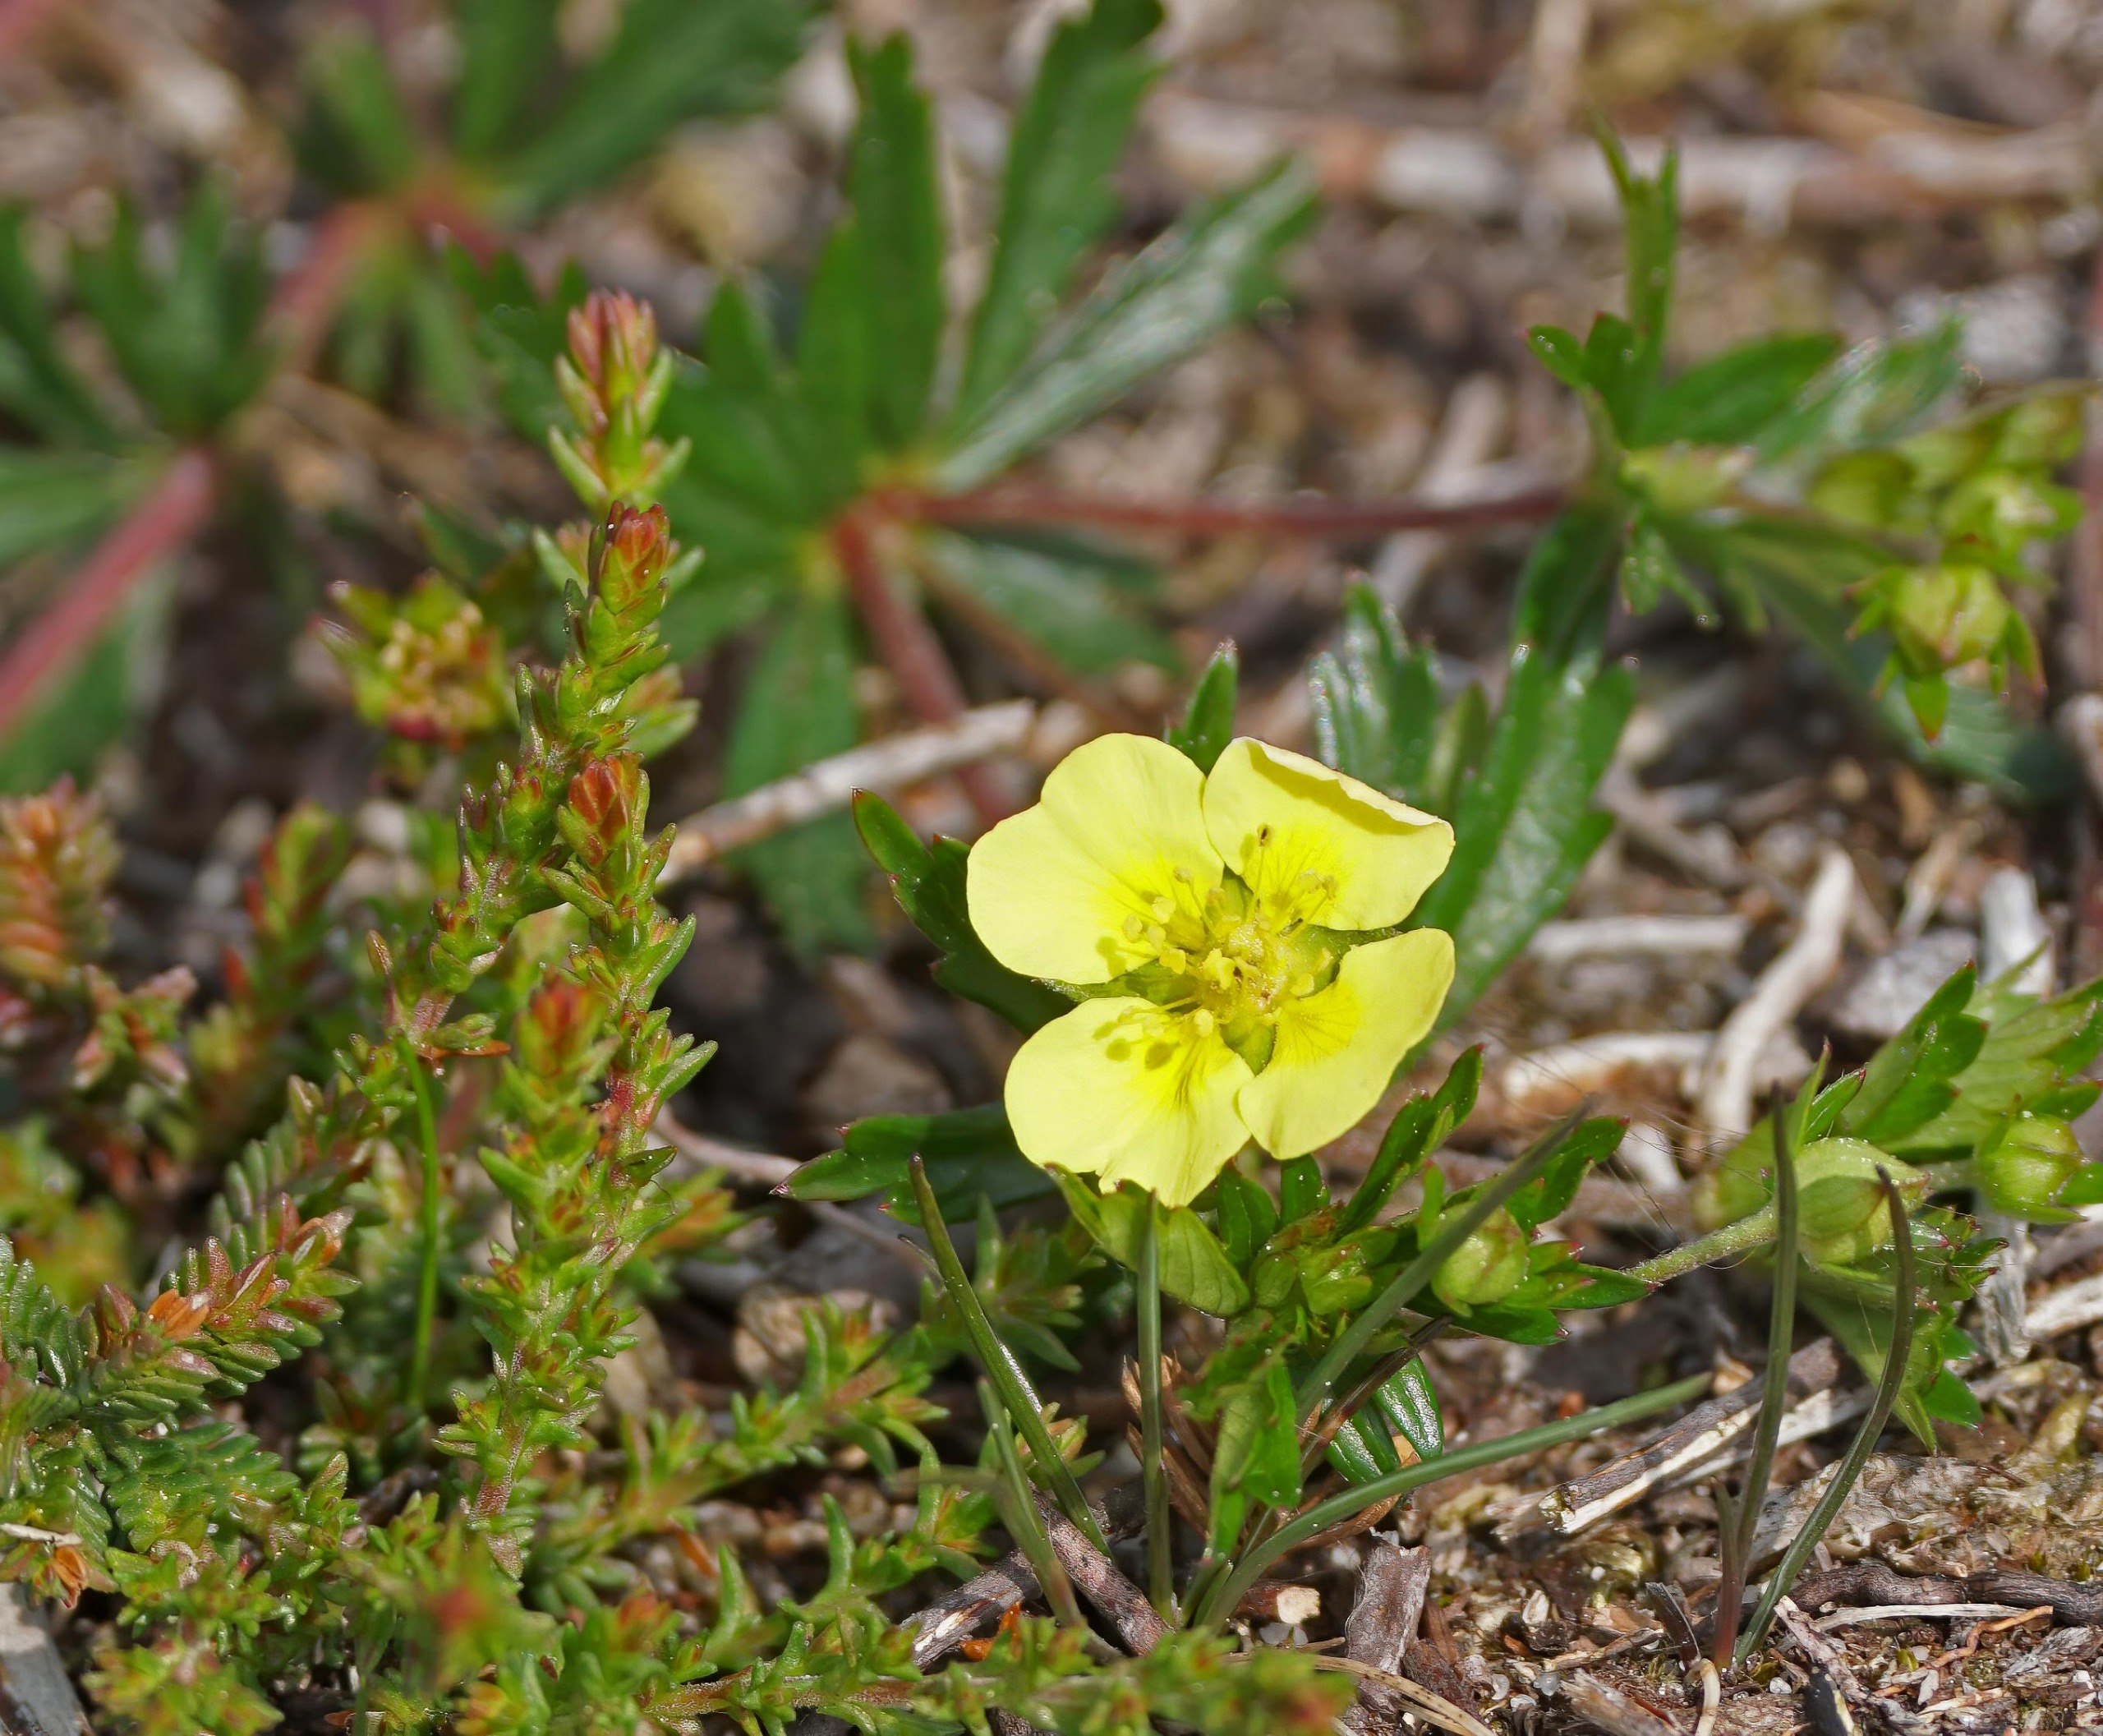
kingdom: Plantae
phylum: Tracheophyta
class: Magnoliopsida
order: Rosales
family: Rosaceae
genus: Potentilla
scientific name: Potentilla erecta
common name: Tormentil
